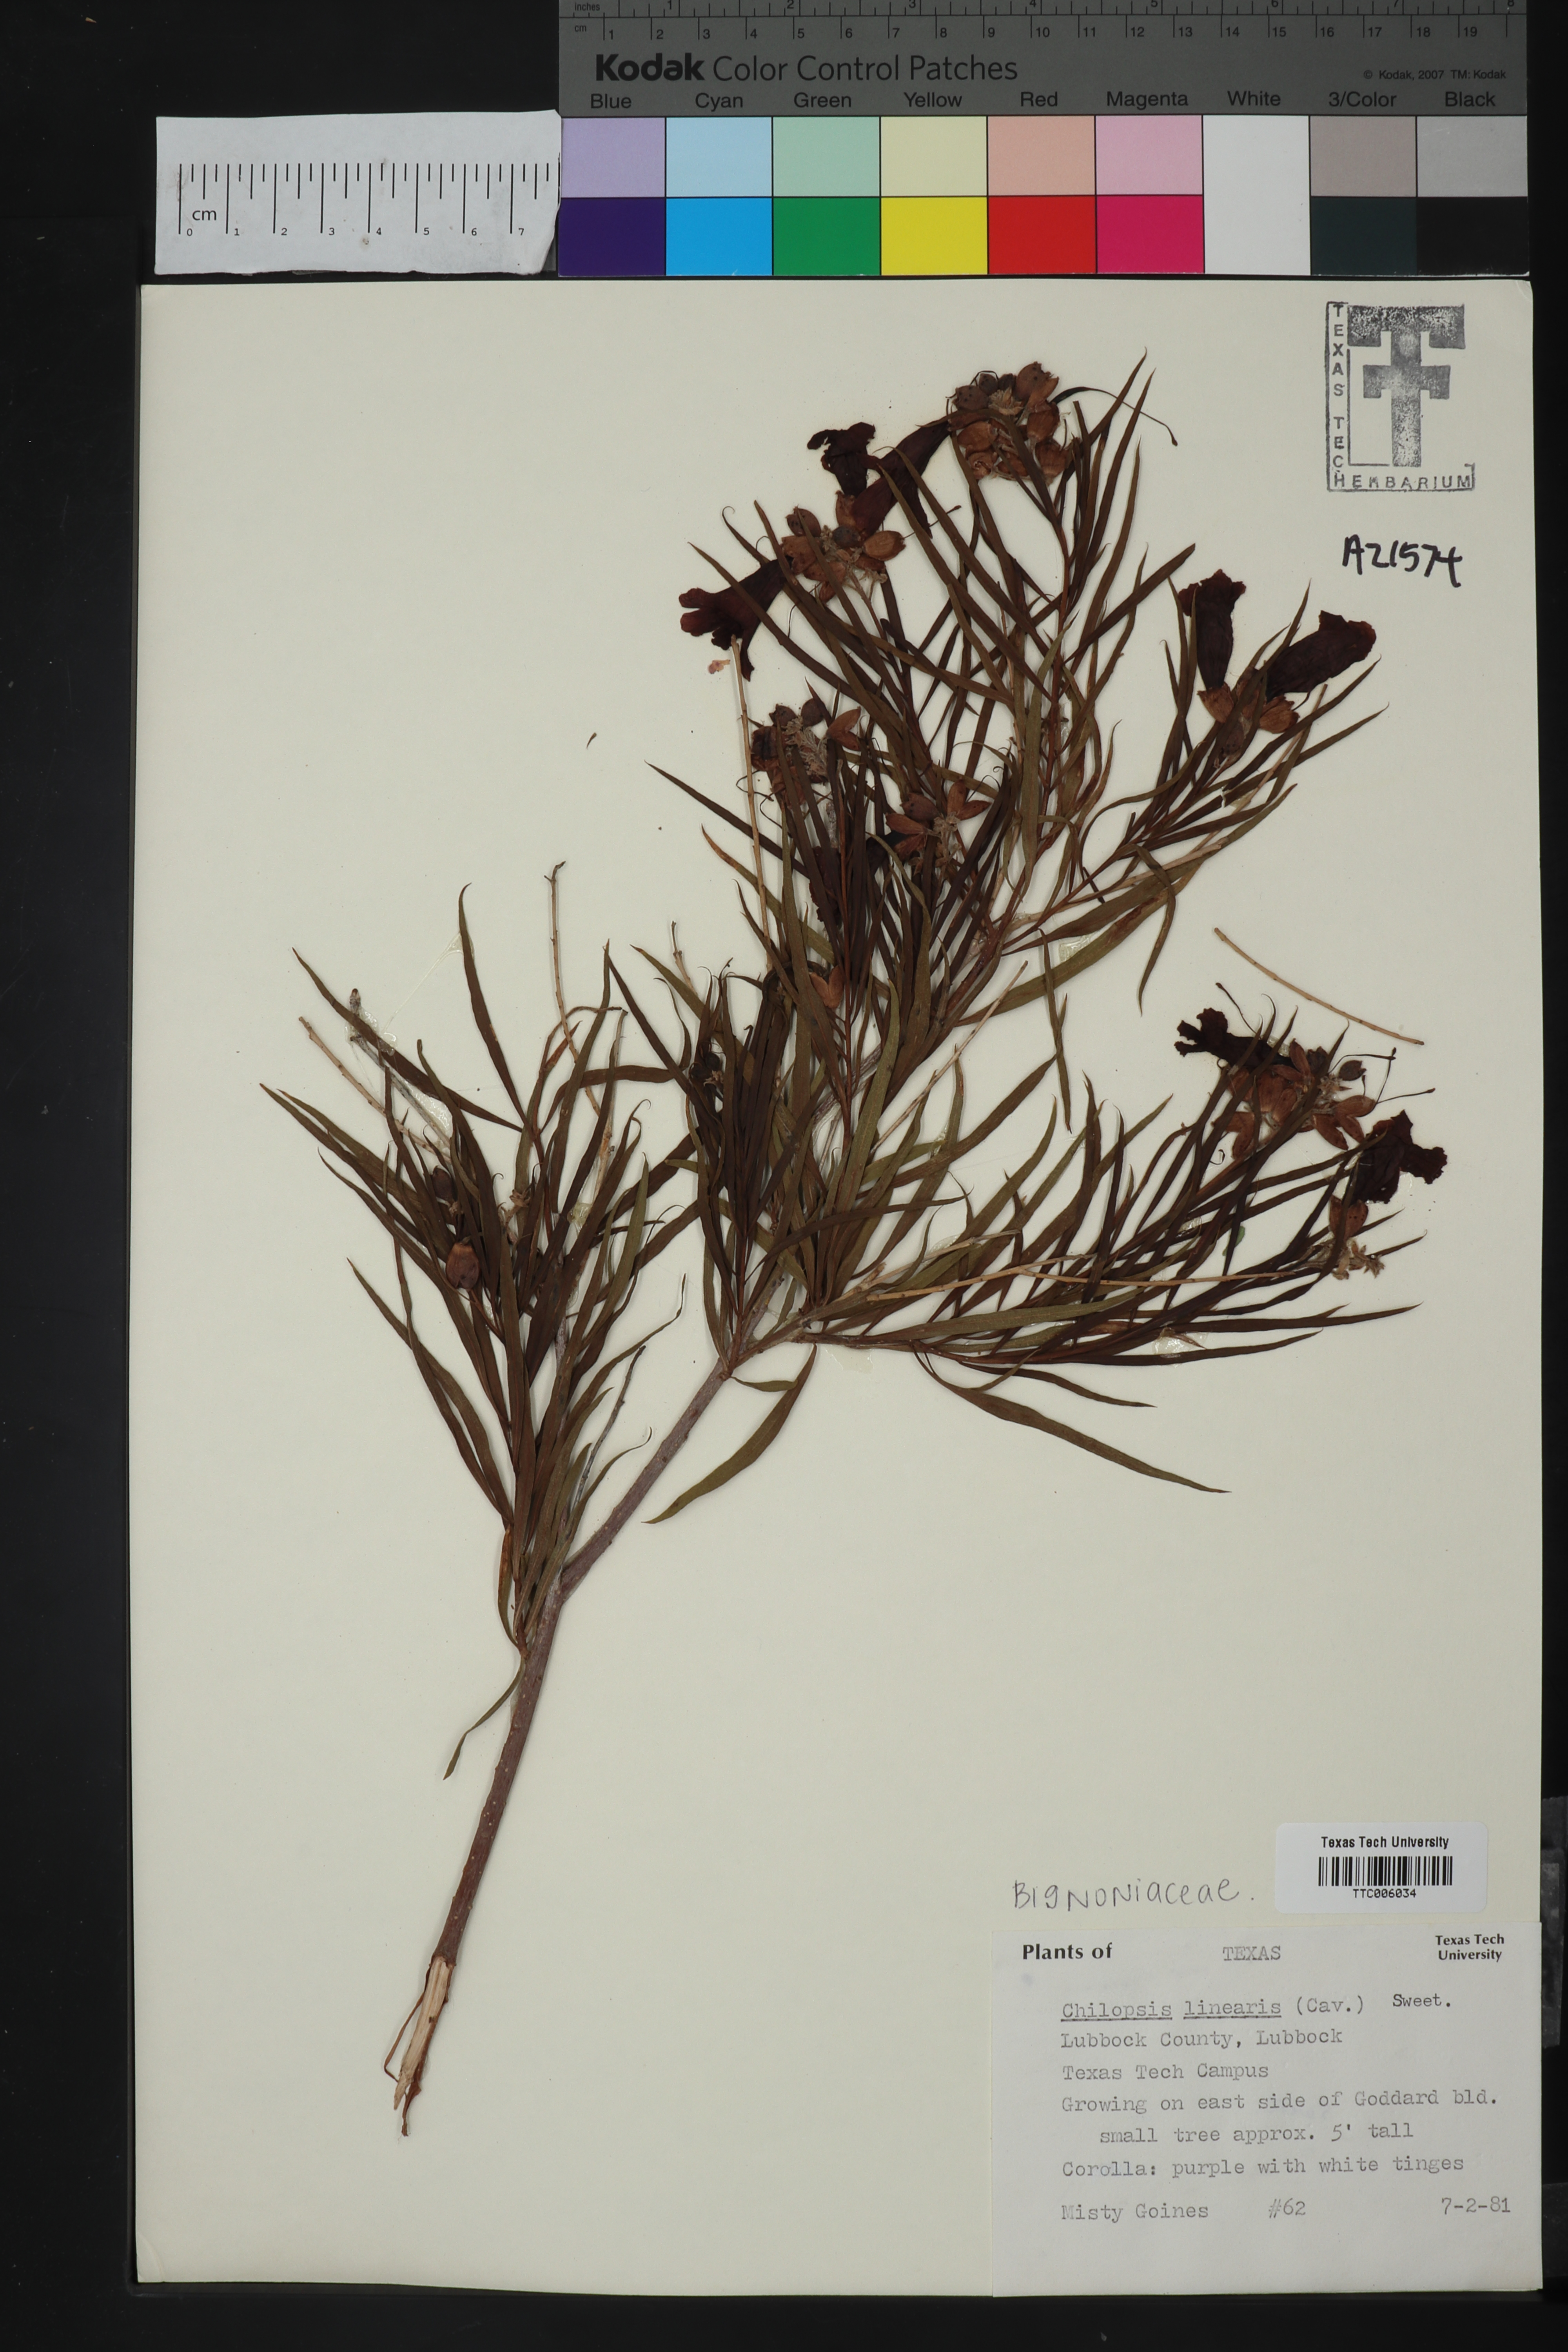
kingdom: Plantae
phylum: Tracheophyta
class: Magnoliopsida
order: Lamiales
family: Bignoniaceae
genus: Chilopsis
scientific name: Chilopsis linearis
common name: Desert-willow
